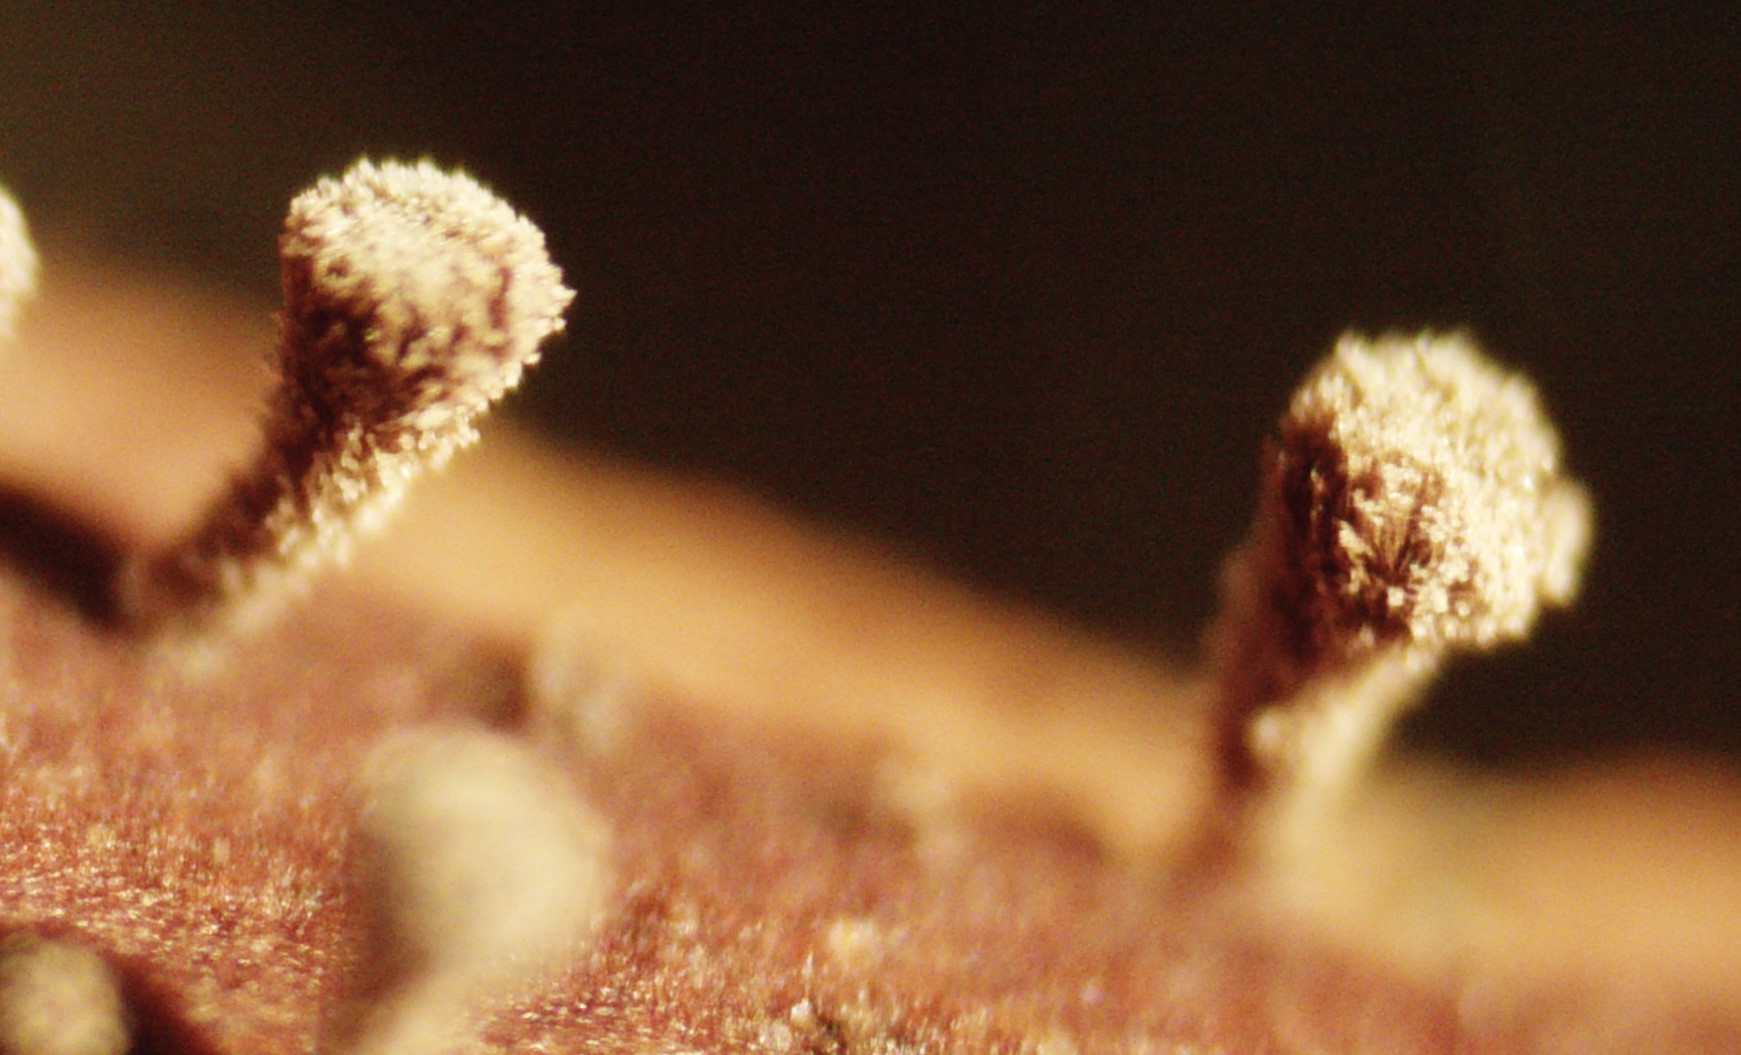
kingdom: Fungi
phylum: Ascomycota
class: Leotiomycetes
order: Helotiales
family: Lachnaceae
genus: Brunnipila
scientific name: Brunnipila clandestina
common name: hindbær-frynseskive
